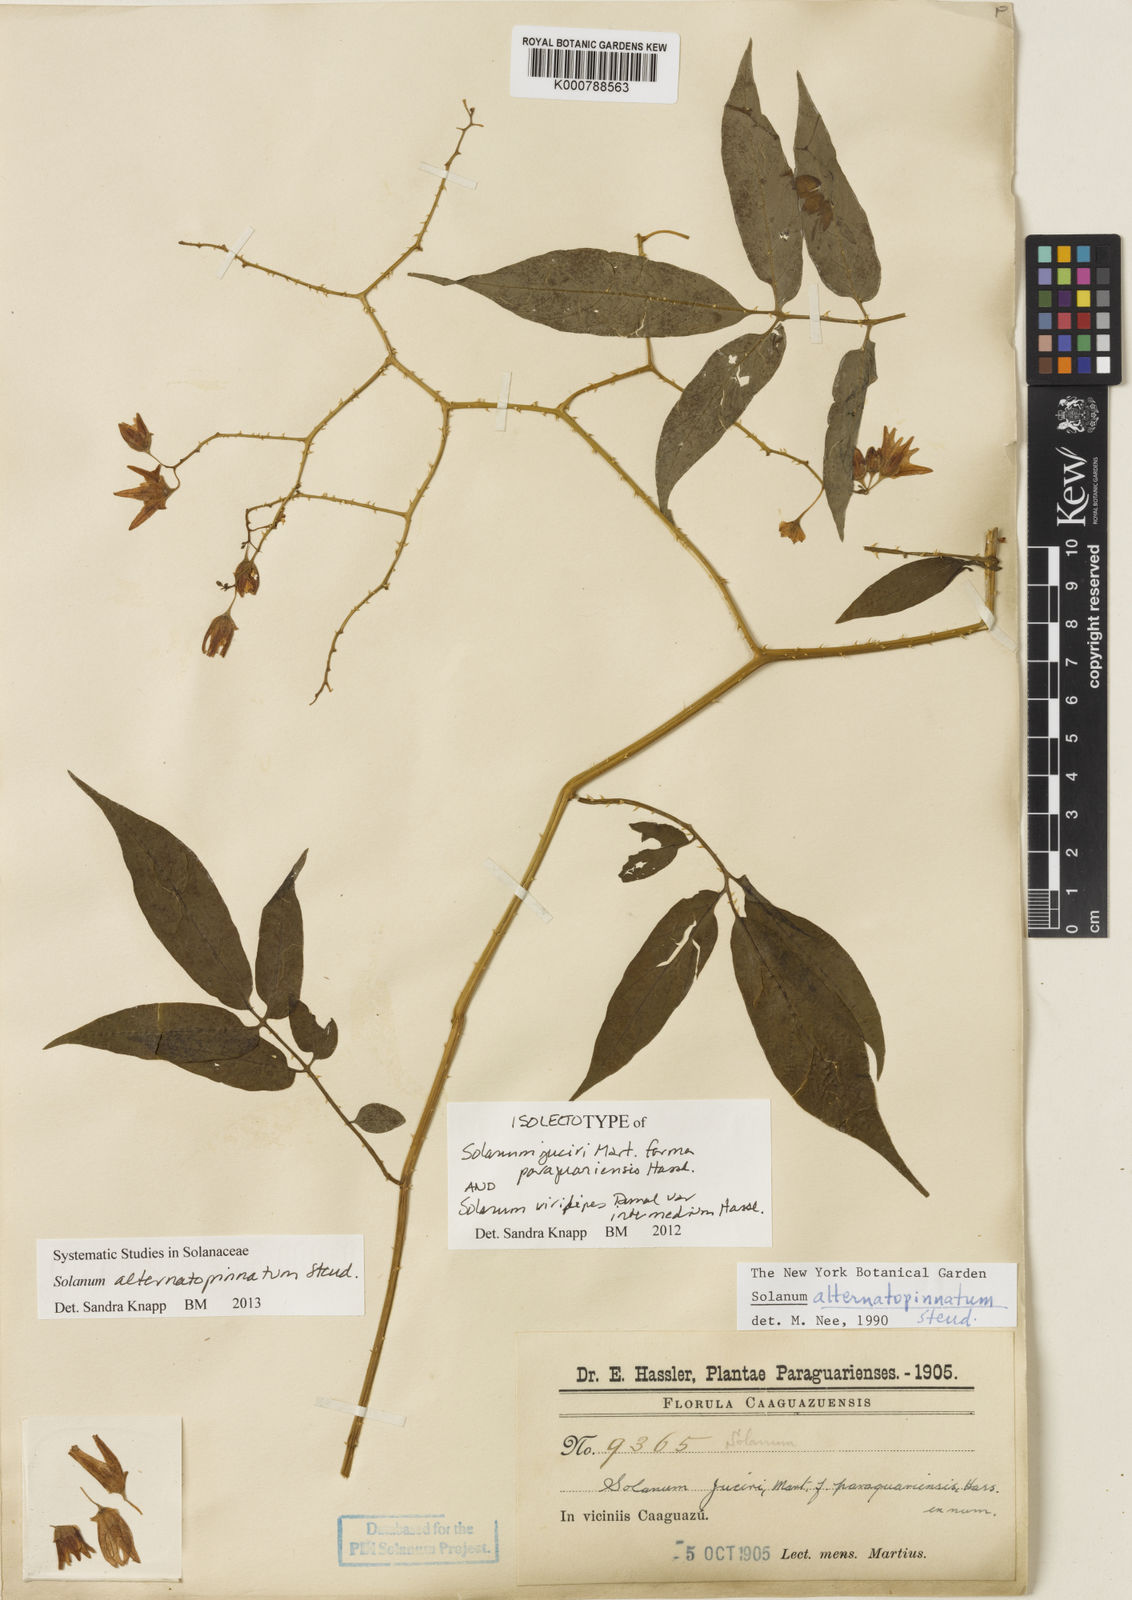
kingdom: Plantae
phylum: Tracheophyta
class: Magnoliopsida
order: Solanales
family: Solanaceae
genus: Solanum
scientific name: Solanum alternatopinnatum
